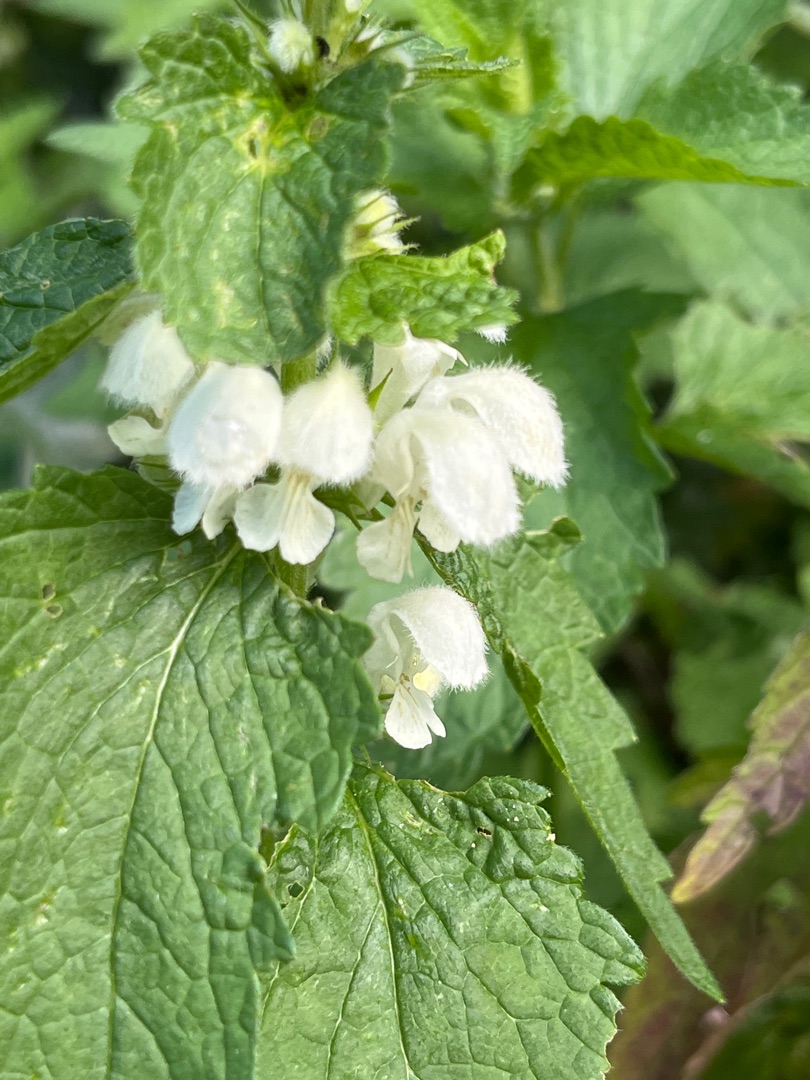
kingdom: Plantae
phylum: Tracheophyta
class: Magnoliopsida
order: Lamiales
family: Lamiaceae
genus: Lamium
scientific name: Lamium album
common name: Døvnælde
